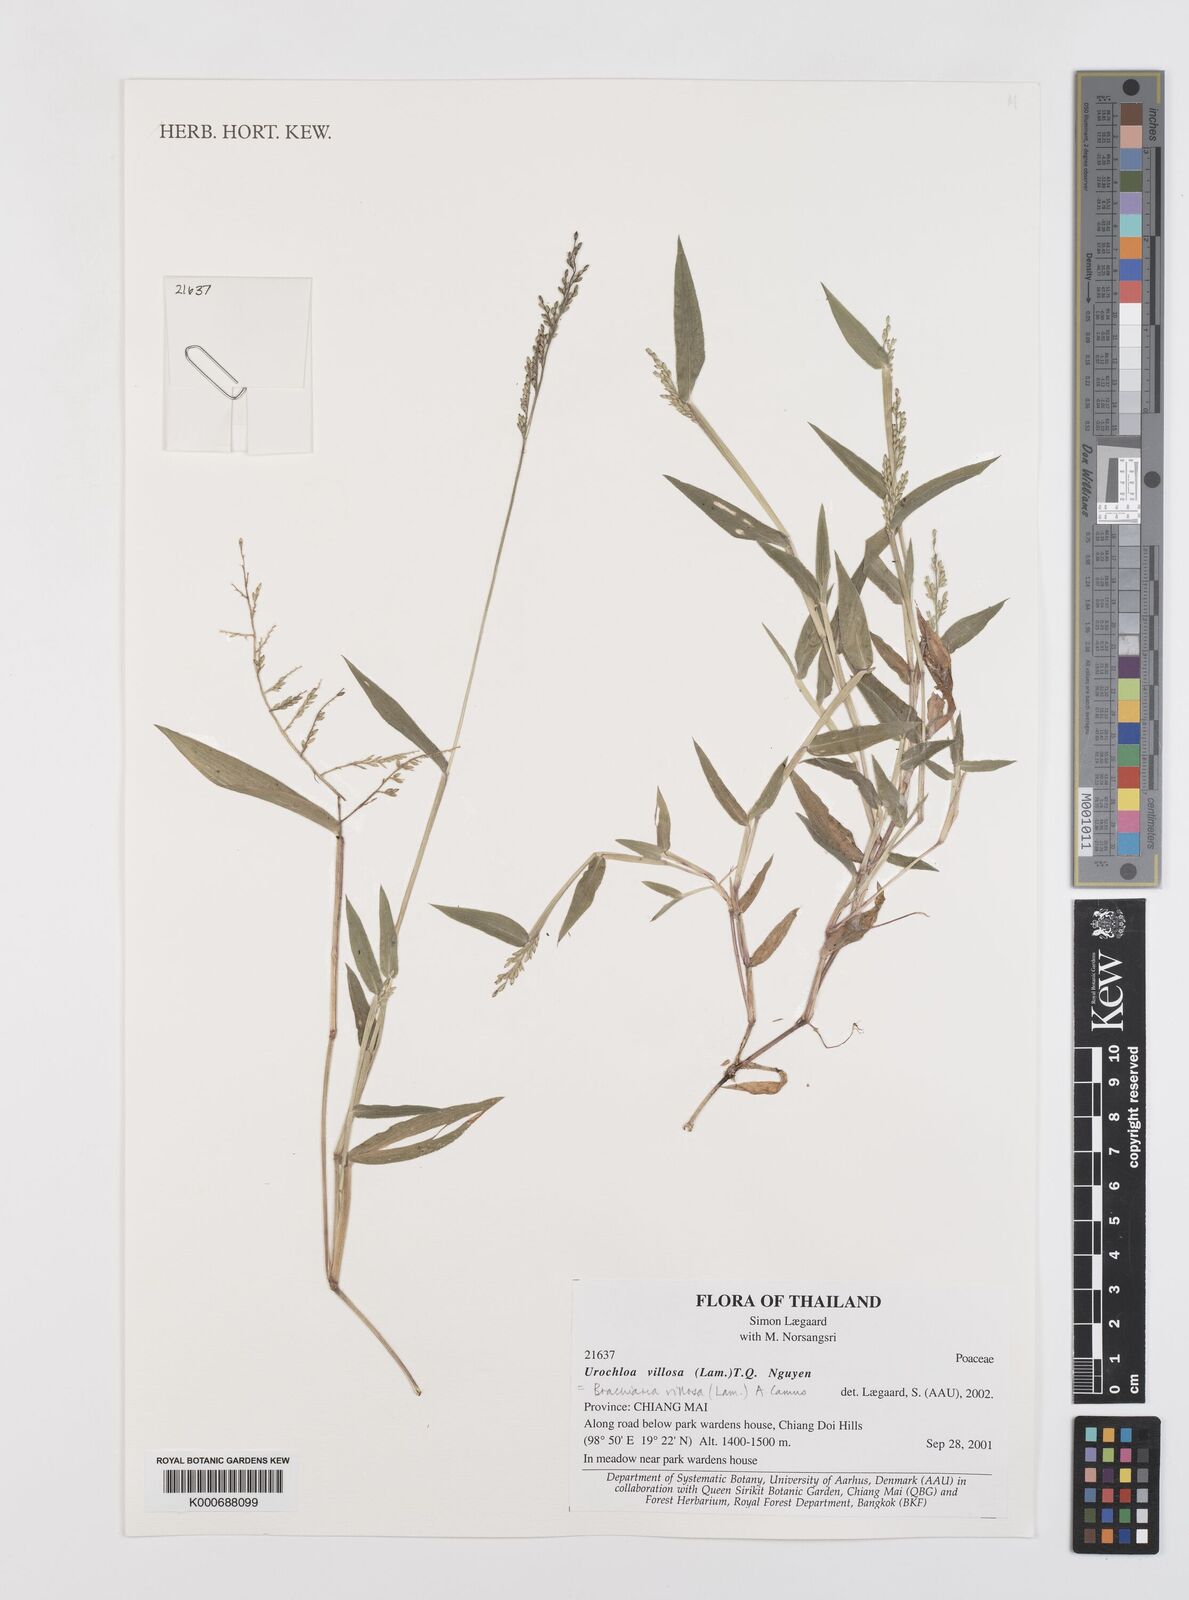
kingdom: Plantae
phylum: Tracheophyta
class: Liliopsida
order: Poales
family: Poaceae
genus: Urochloa
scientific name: Urochloa villosa
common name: Hairy signalgrass
